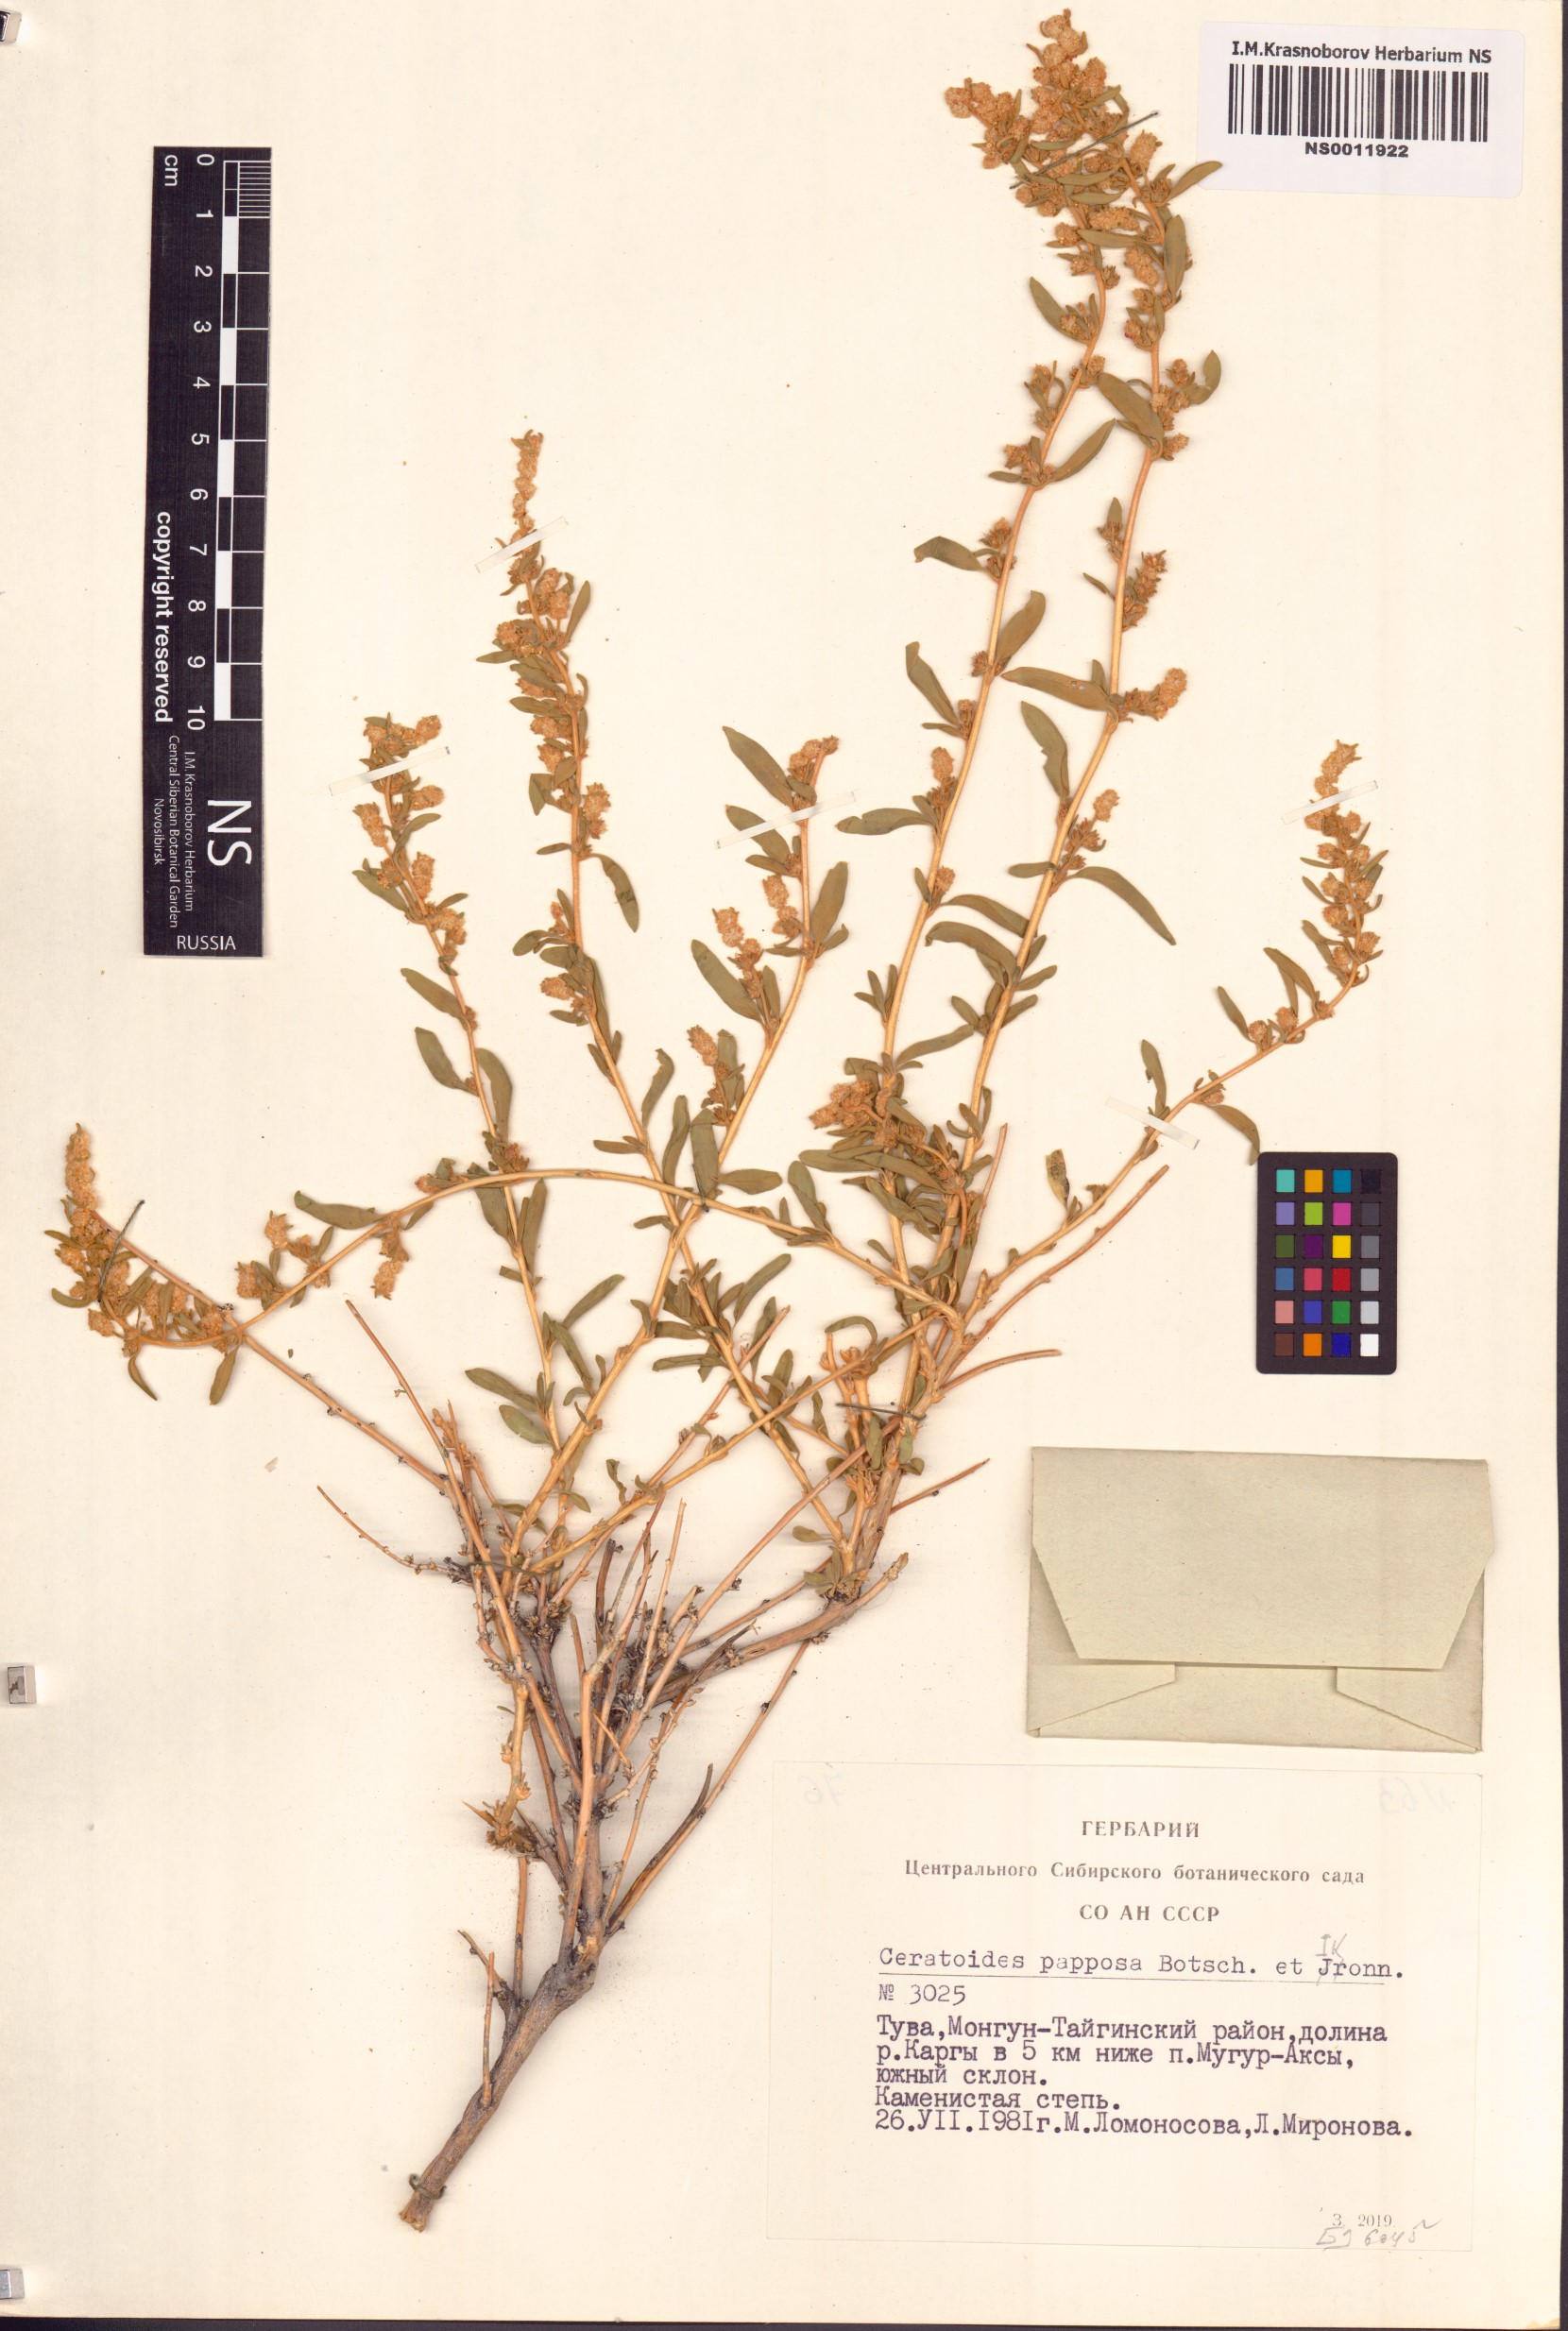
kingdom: Plantae
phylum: Tracheophyta
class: Magnoliopsida
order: Caryophyllales
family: Amaranthaceae
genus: Krascheninnikovia
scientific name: Krascheninnikovia ceratoides
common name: Pamirian winterfat
